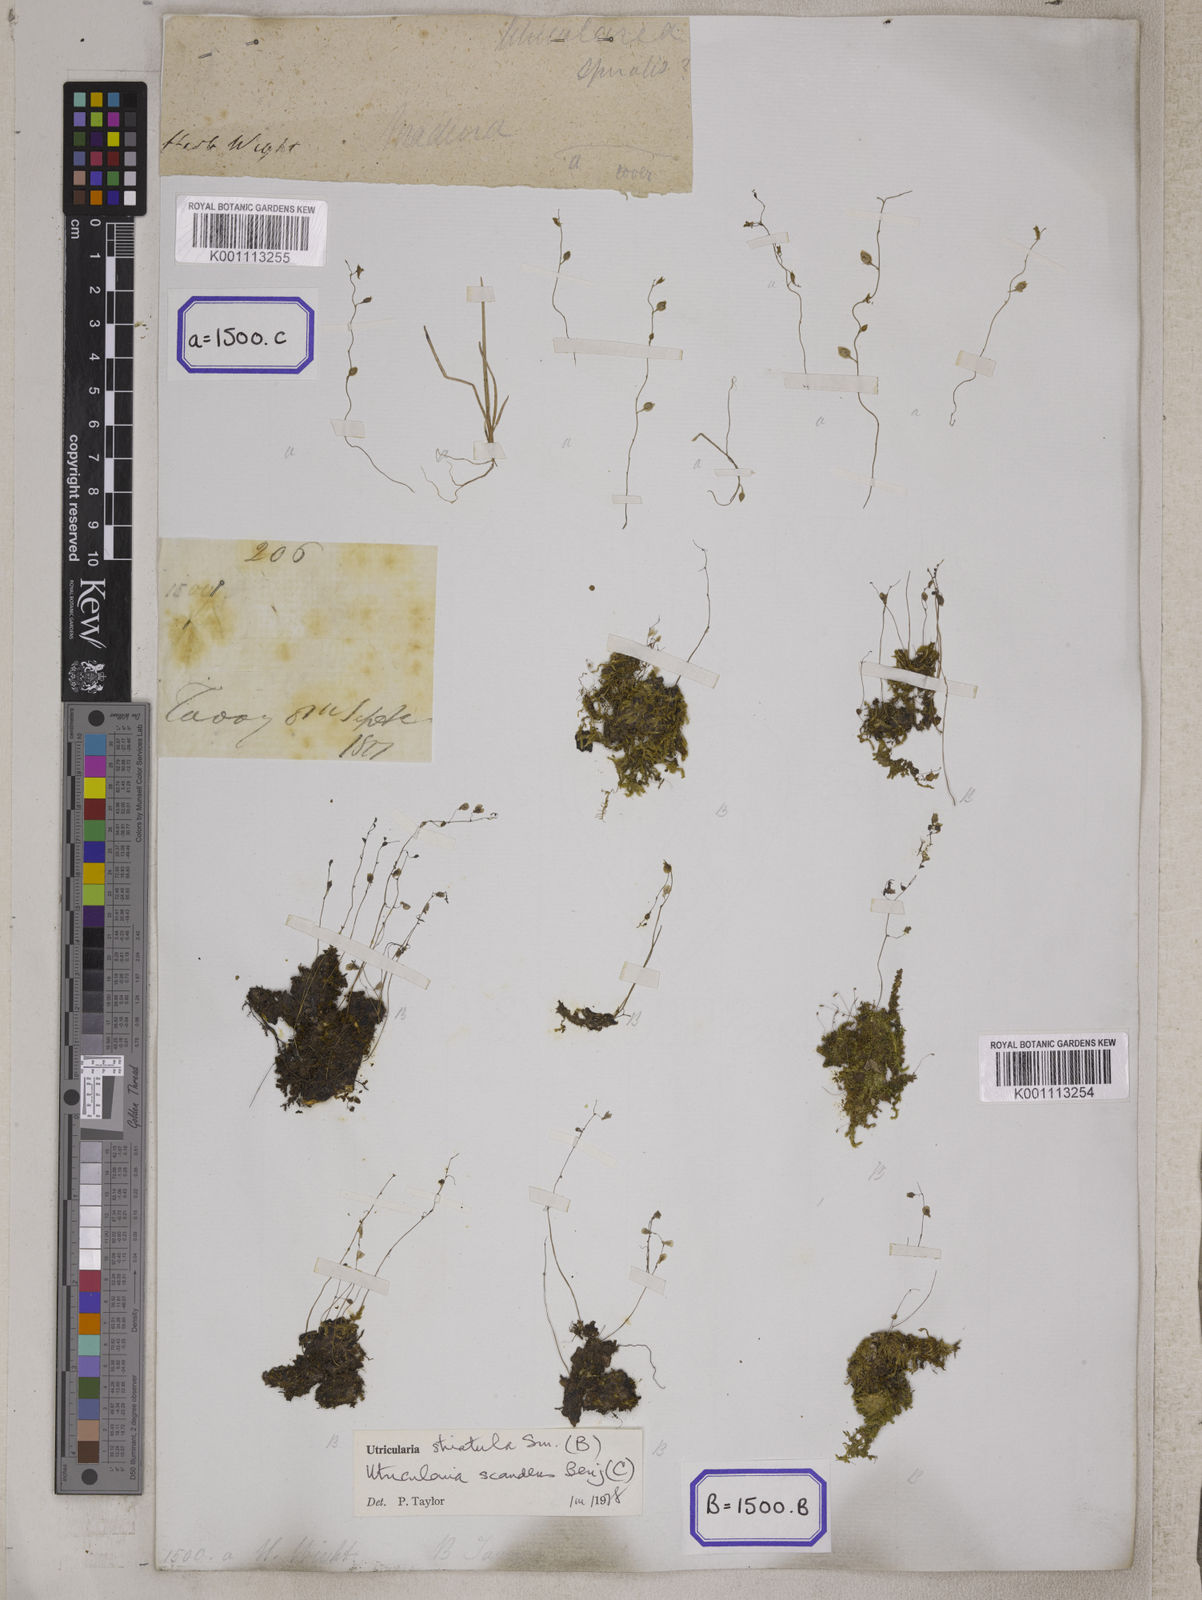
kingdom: Plantae
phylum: Tracheophyta
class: Magnoliopsida
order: Lamiales
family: Lentibulariaceae
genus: Utricularia
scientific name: Utricularia
